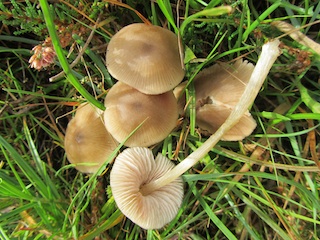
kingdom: Fungi
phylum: Basidiomycota
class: Agaricomycetes
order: Agaricales
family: Entolomataceae
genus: Entoloma
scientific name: Entoloma conferendum
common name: stjernesporet rødblad
